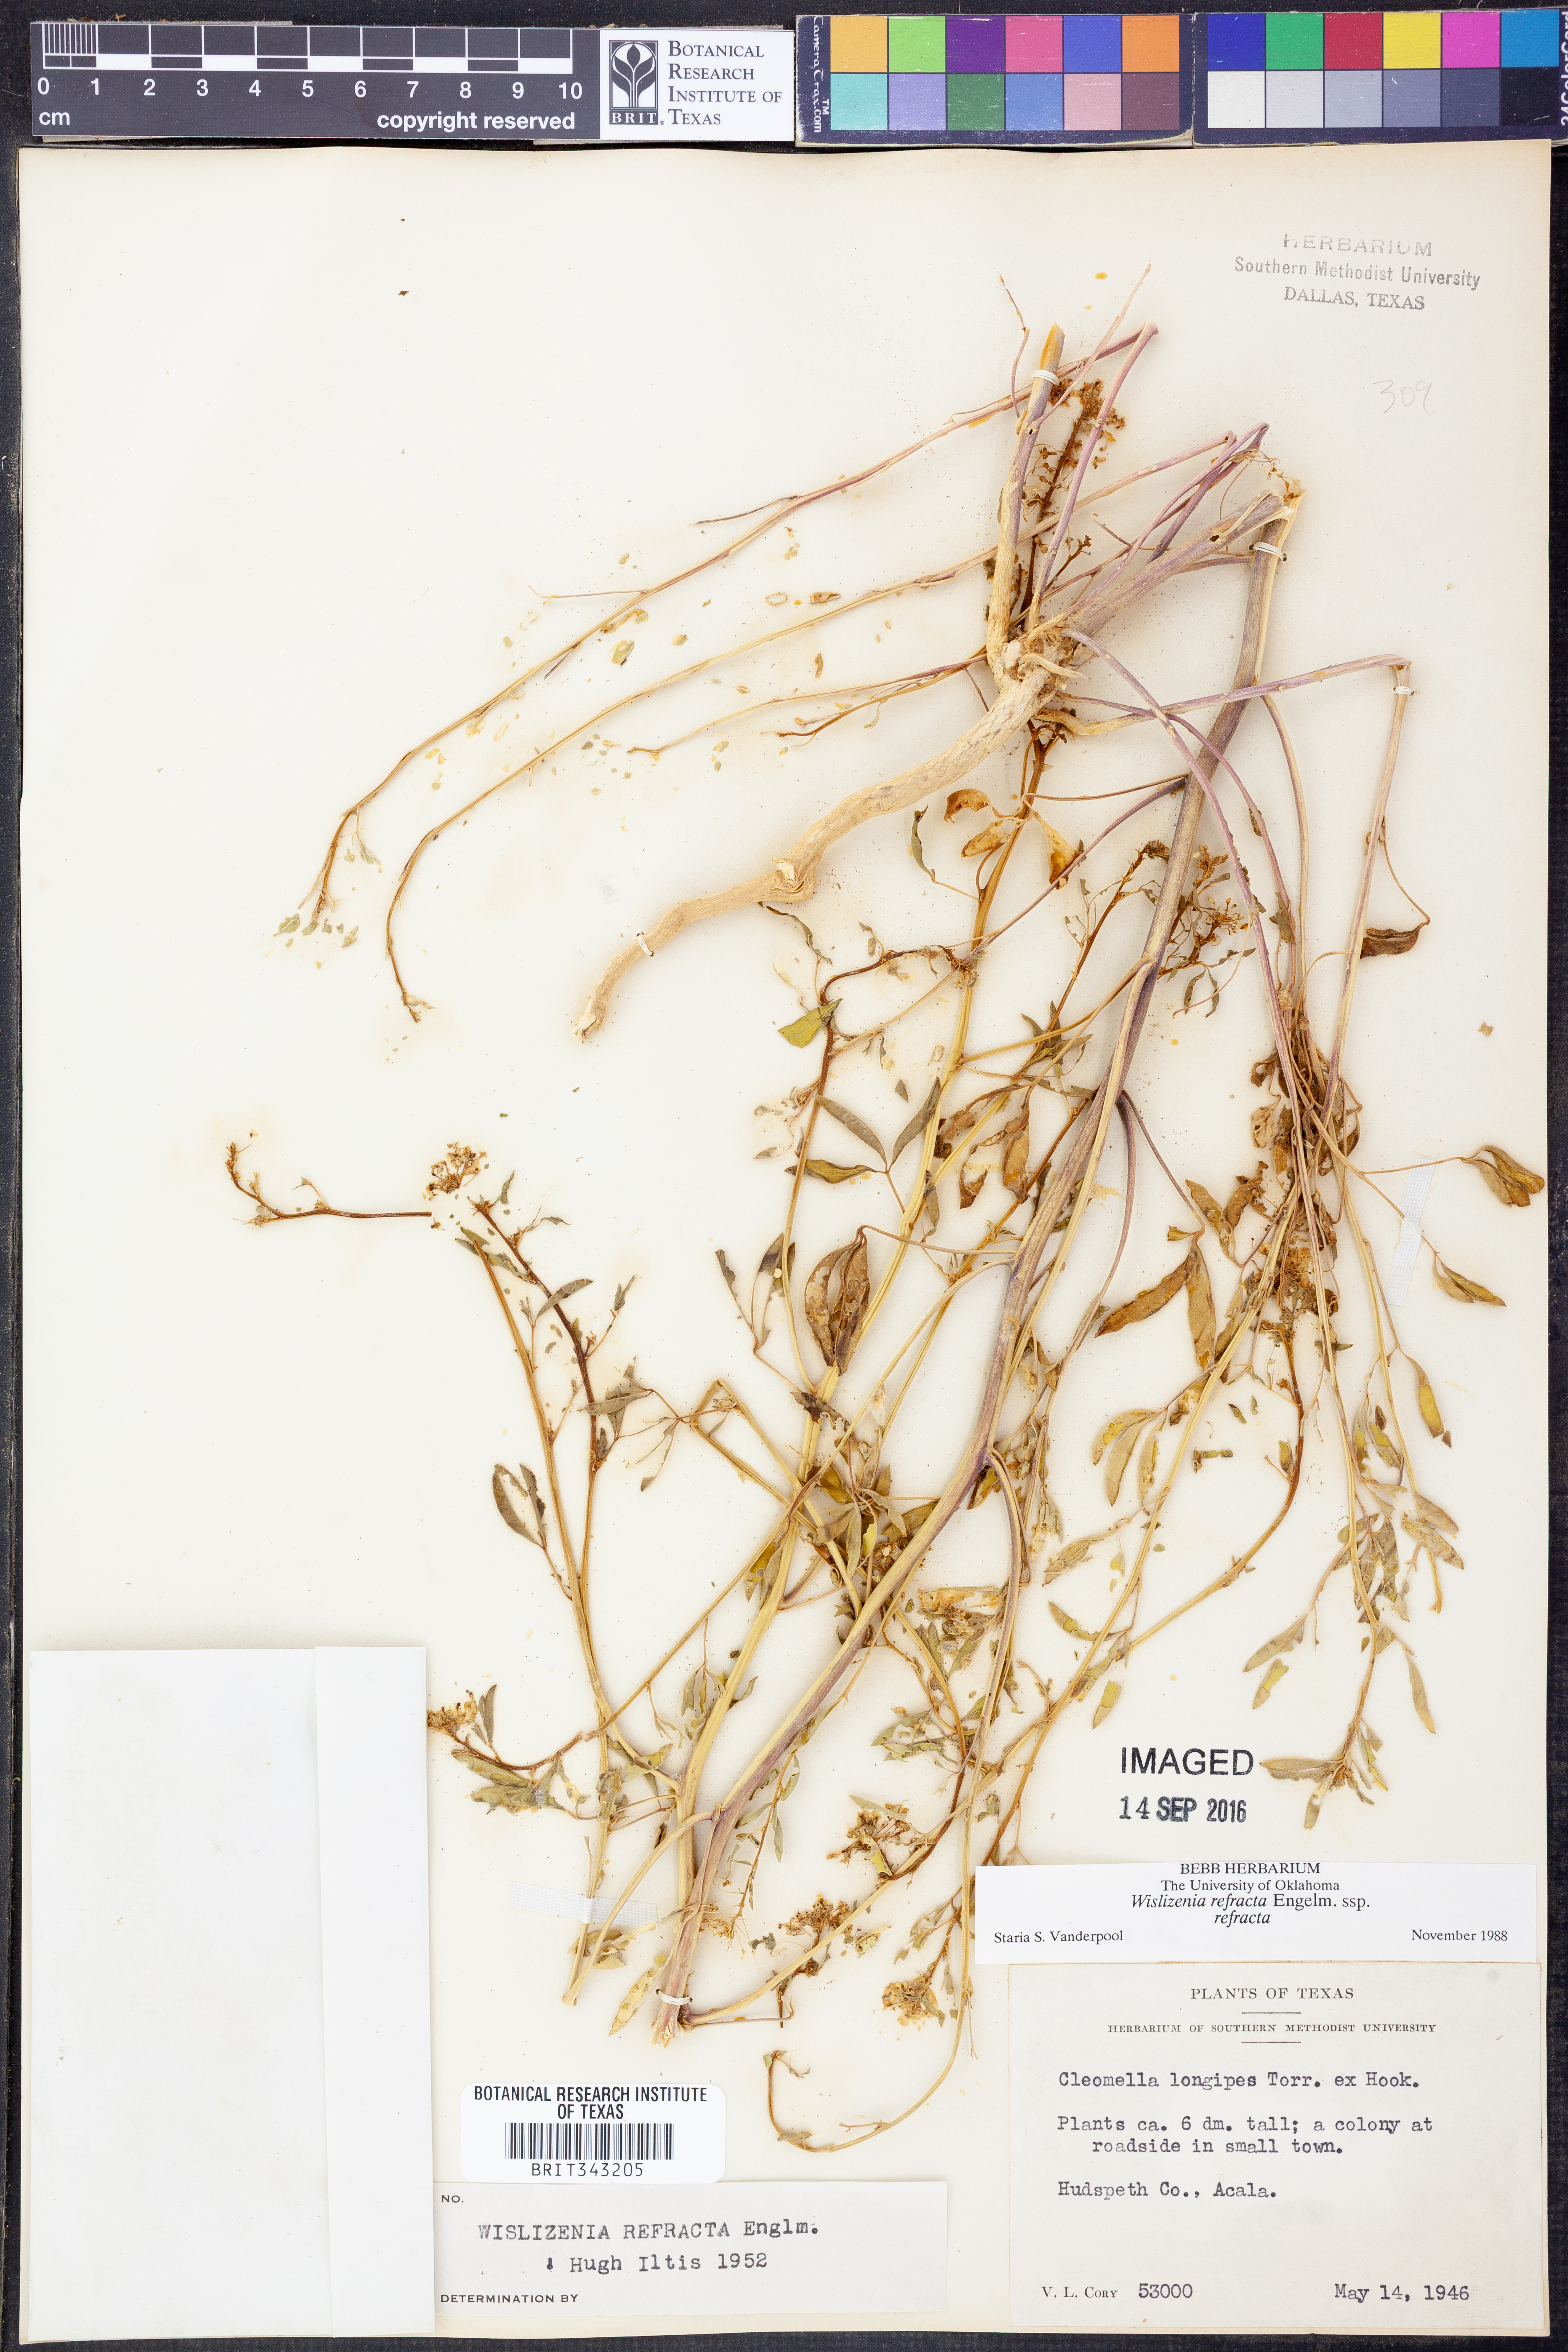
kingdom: Plantae
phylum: Tracheophyta
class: Magnoliopsida
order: Brassicales
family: Cleomaceae
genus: Cleomella
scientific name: Cleomella refracta
